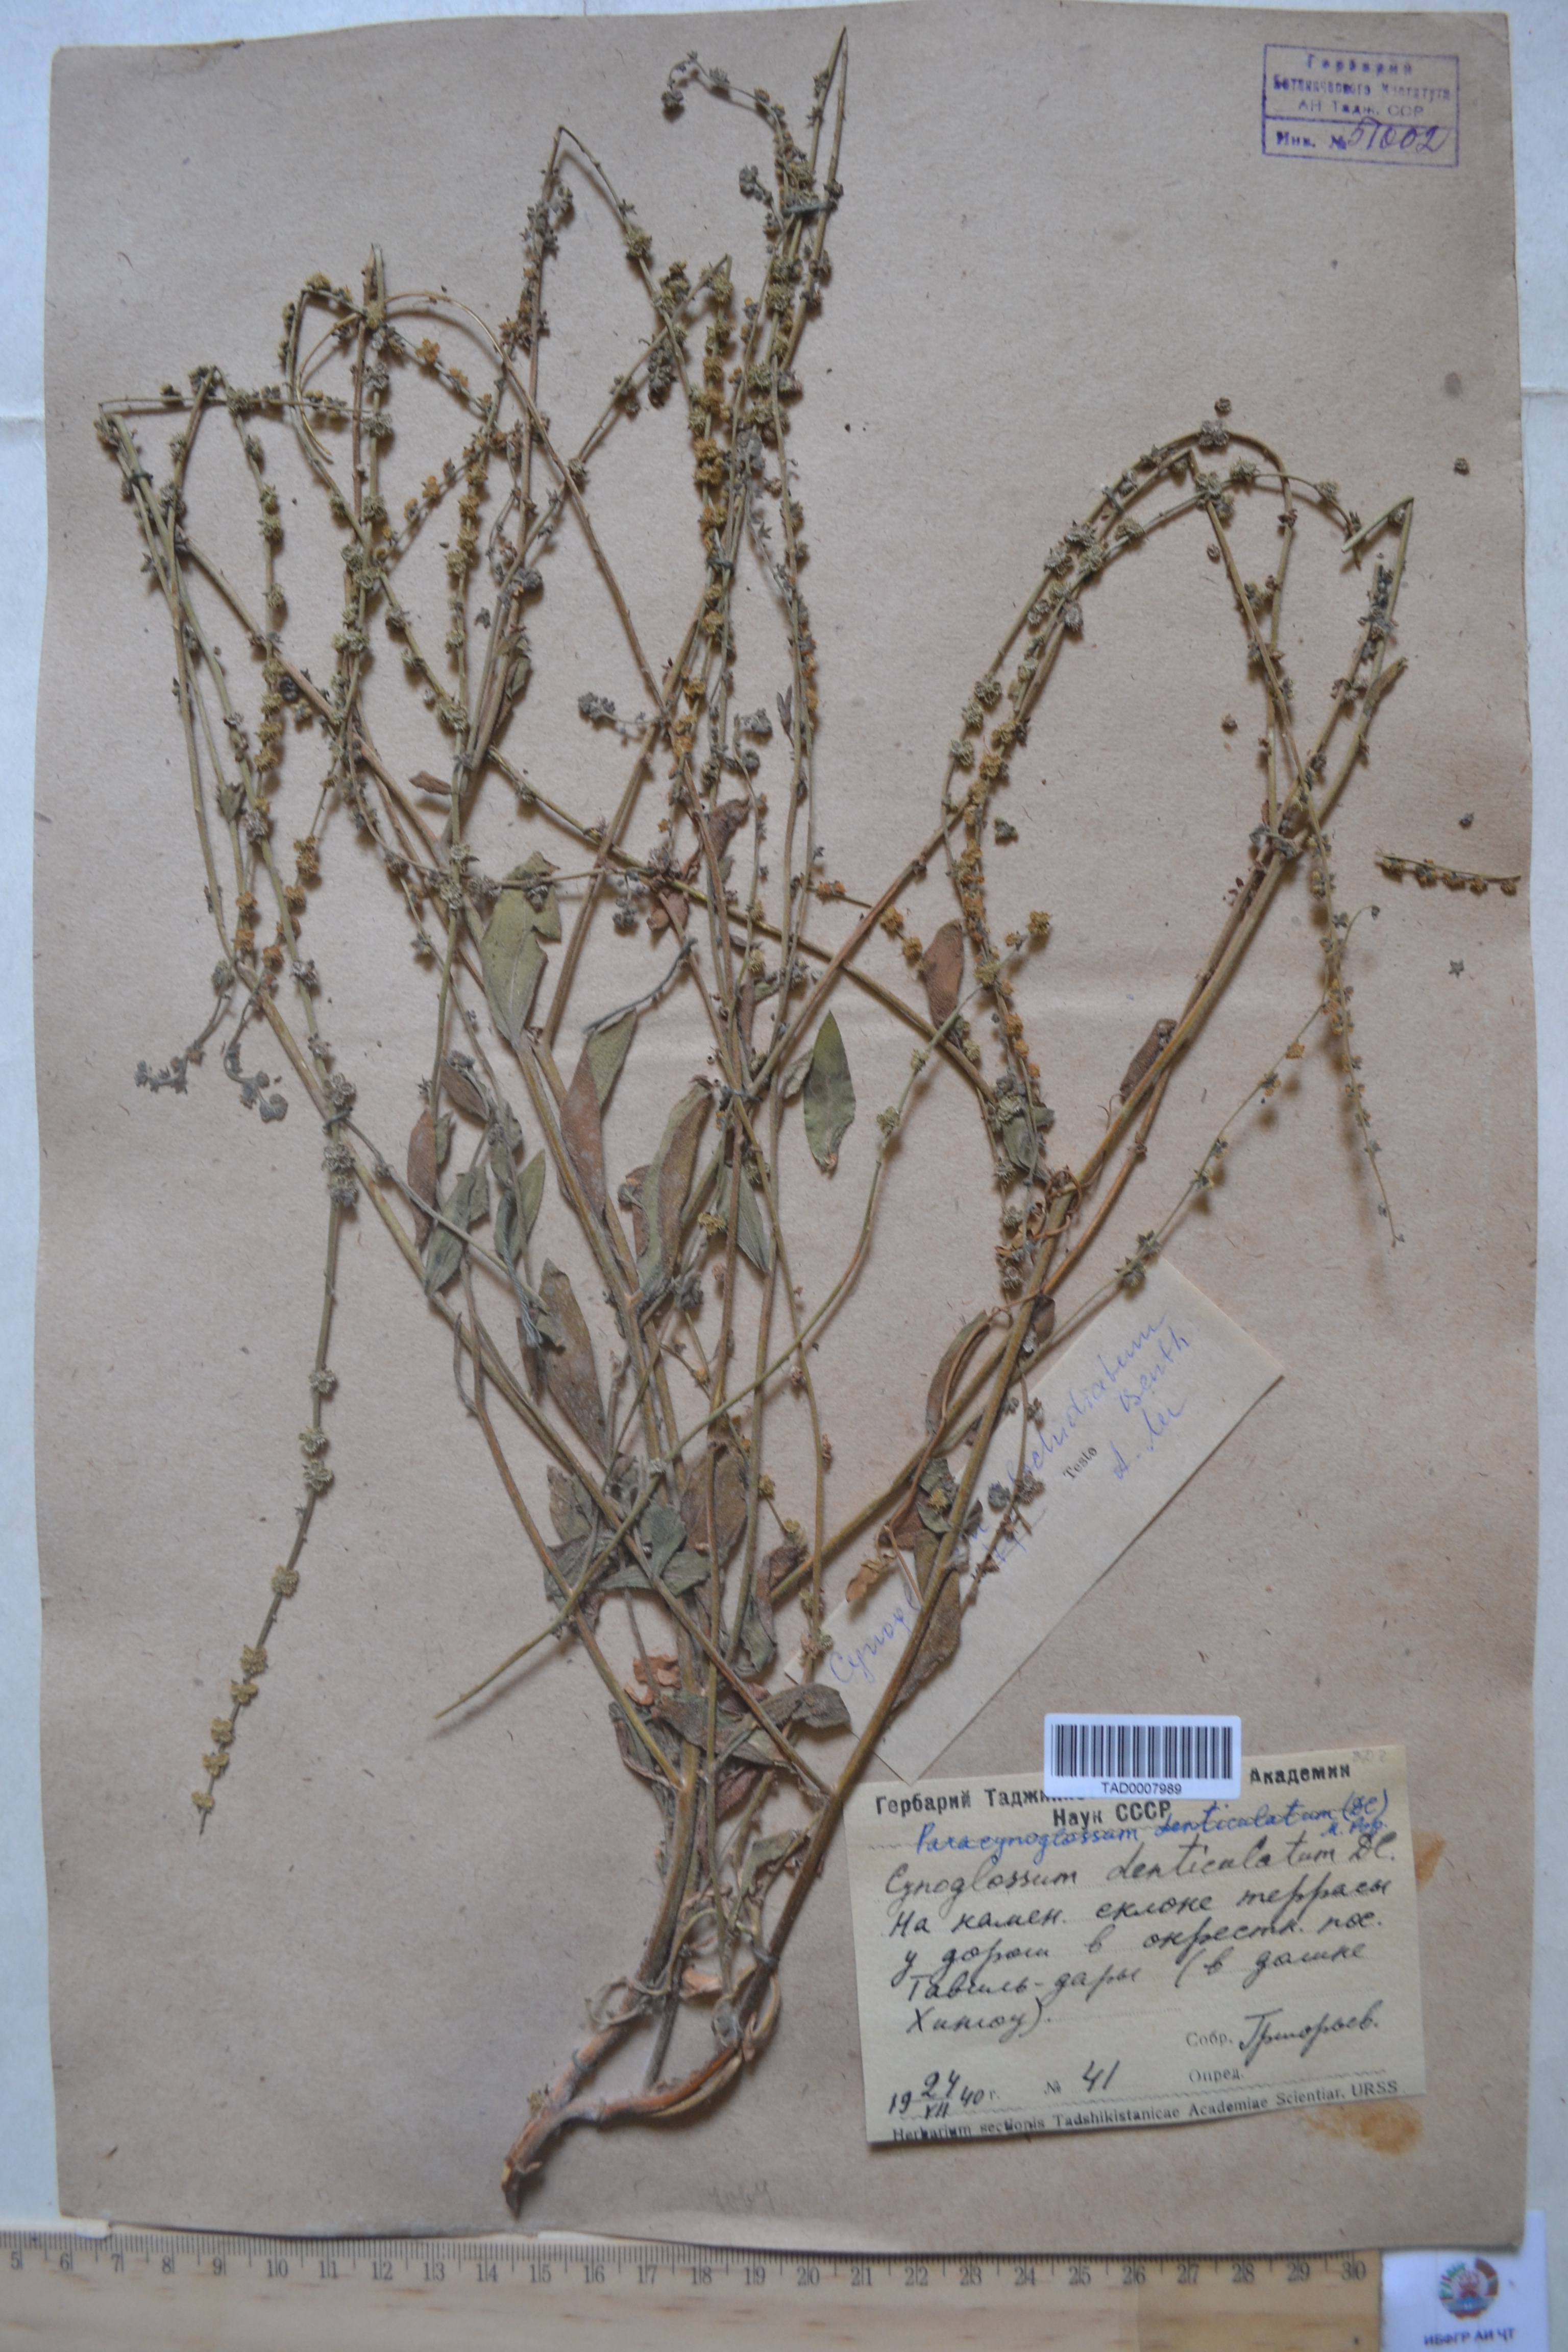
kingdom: Plantae
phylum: Tracheophyta
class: Magnoliopsida
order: Boraginales
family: Boraginaceae
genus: Paracynoglossum
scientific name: Paracynoglossum glochidiatum
